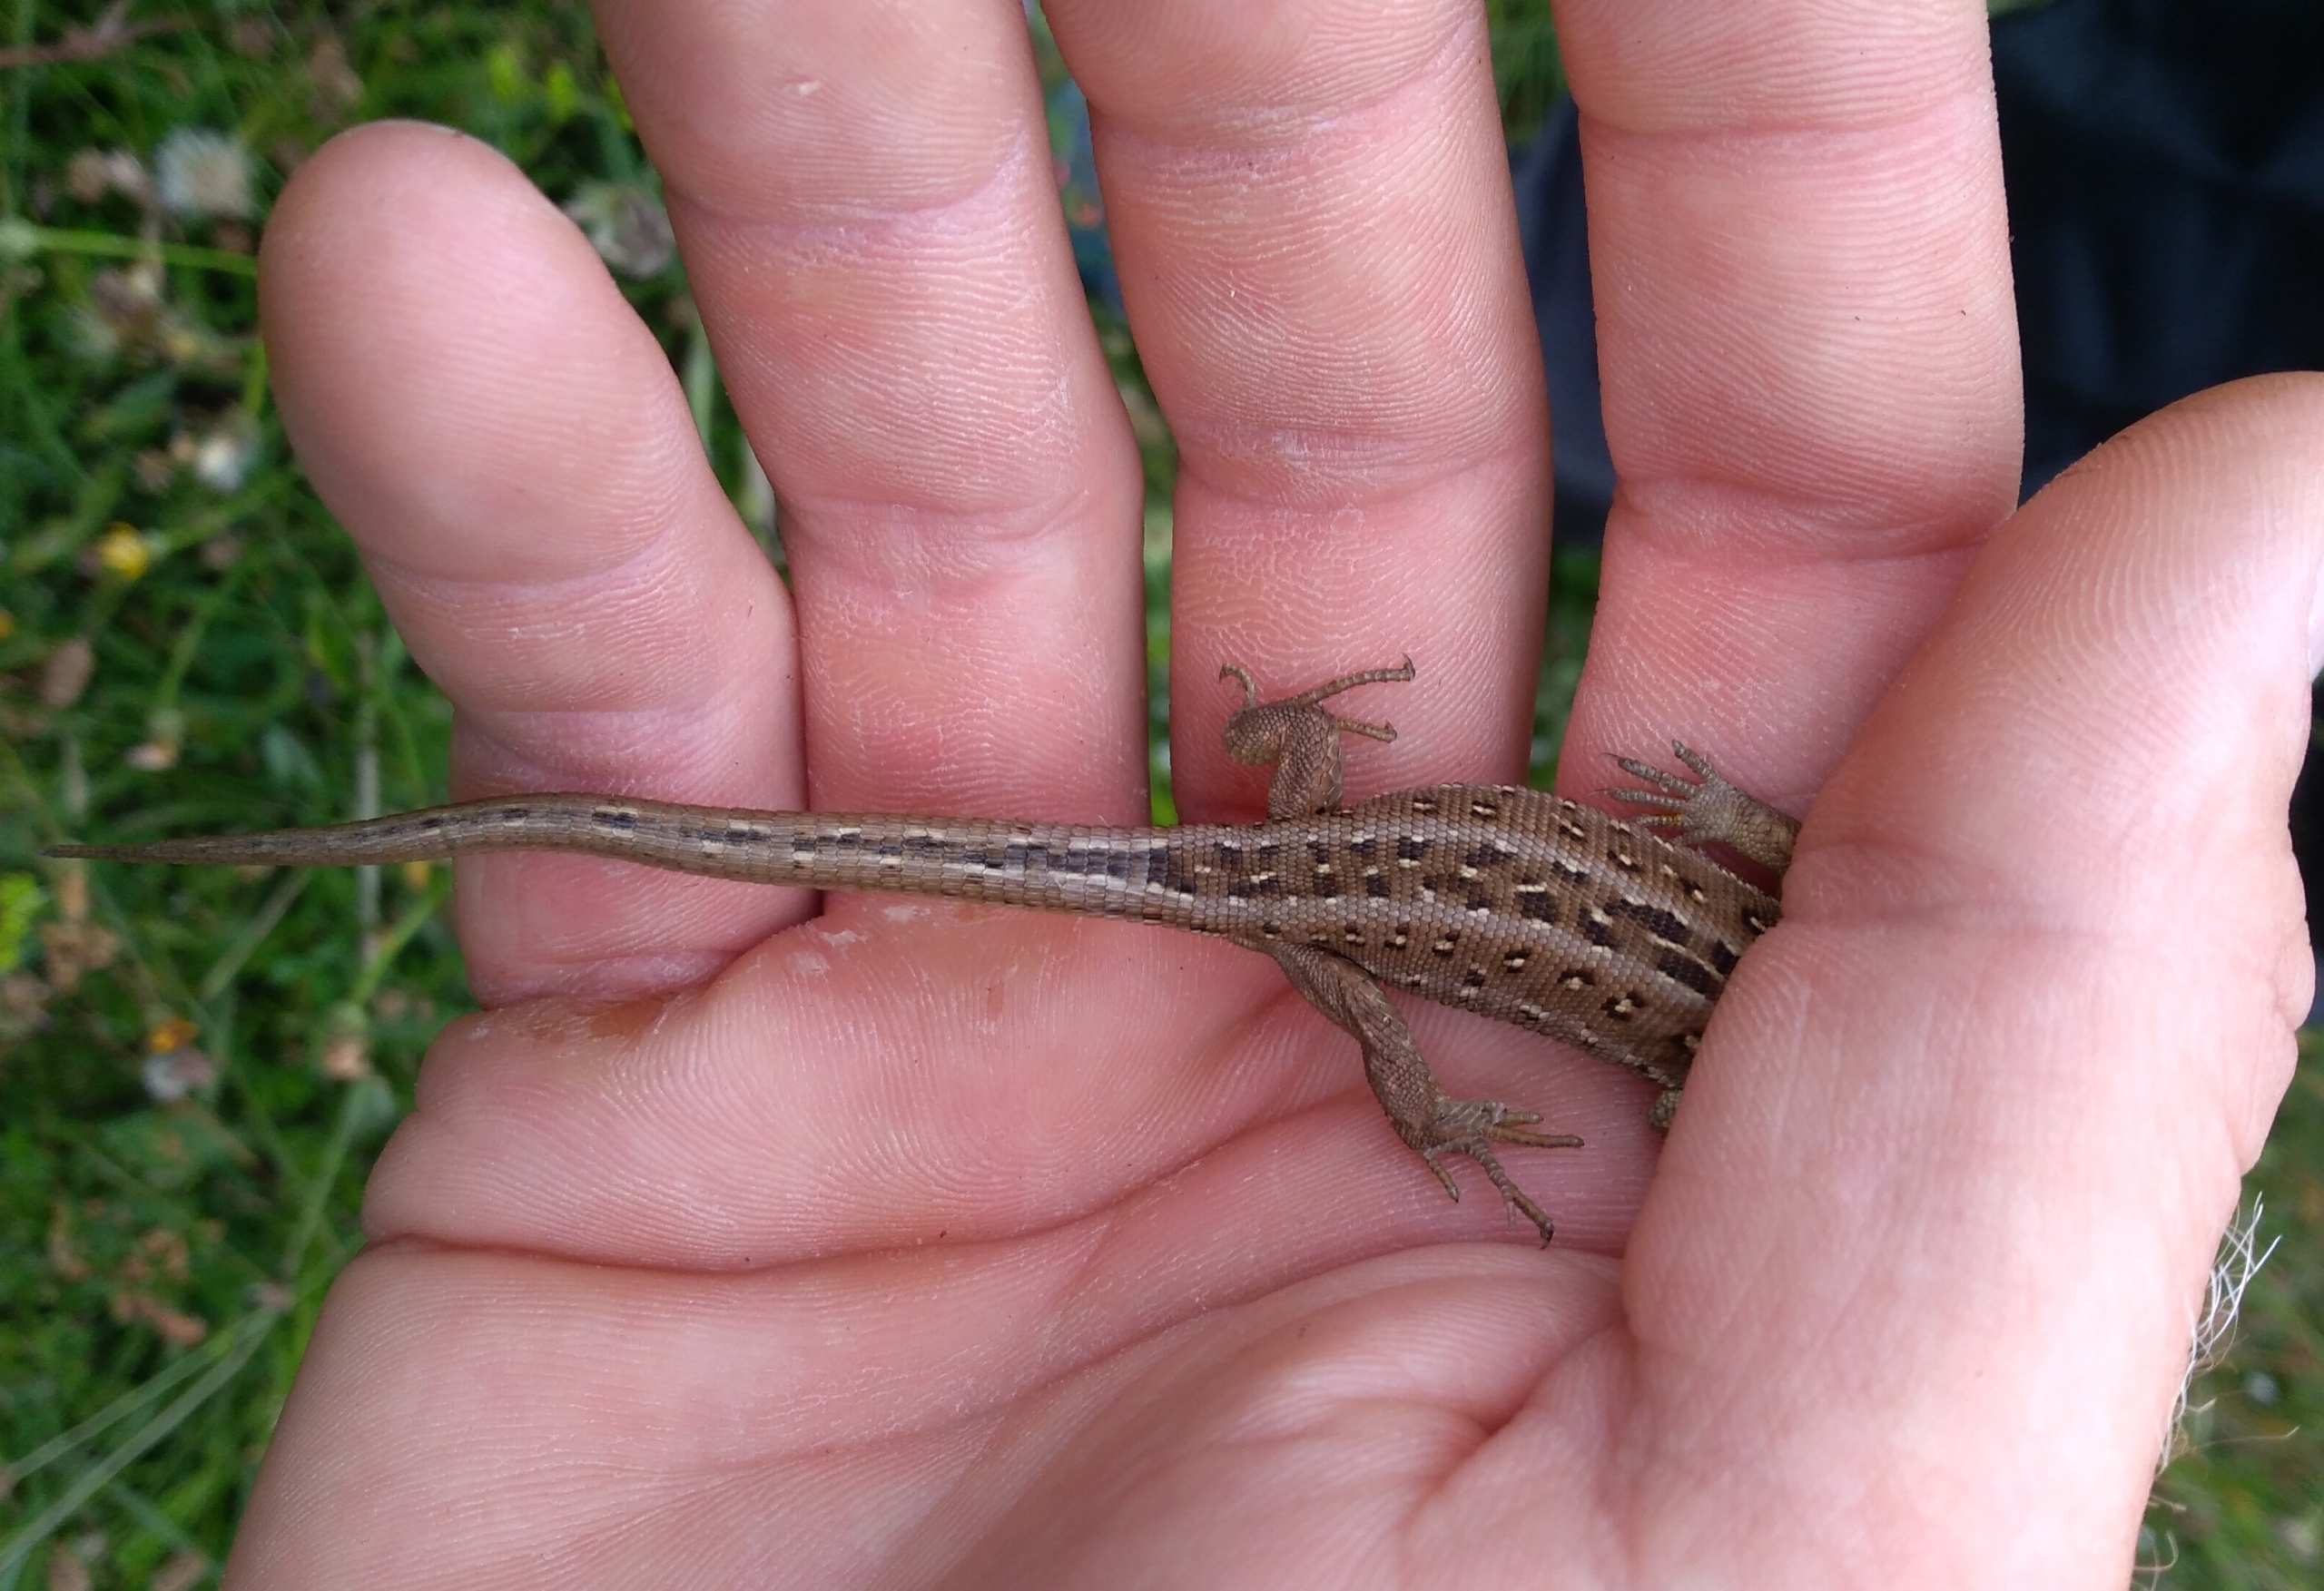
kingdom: Animalia
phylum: Chordata
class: Squamata
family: Lacertidae
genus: Lacerta
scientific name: Lacerta agilis
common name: Markfirben
